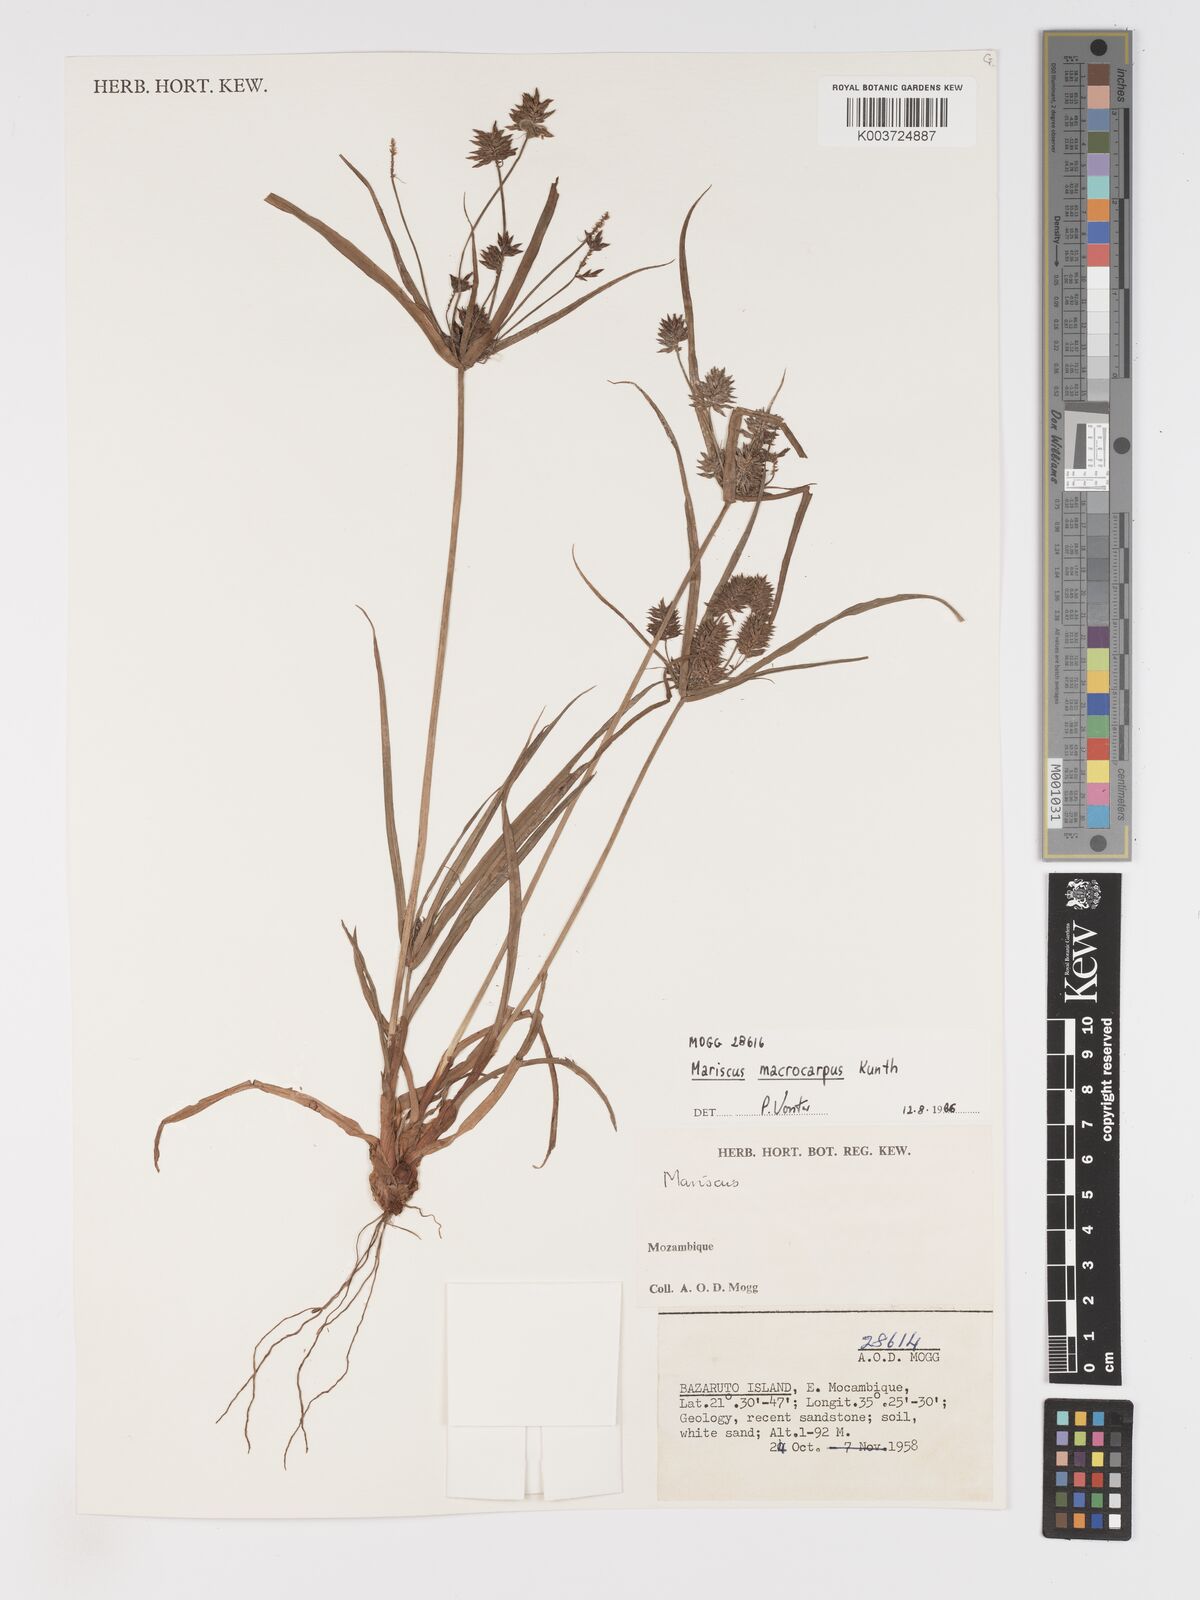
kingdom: Plantae
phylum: Tracheophyta
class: Liliopsida
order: Poales
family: Cyperaceae
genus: Cyperus
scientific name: Cyperus macrocarpus
